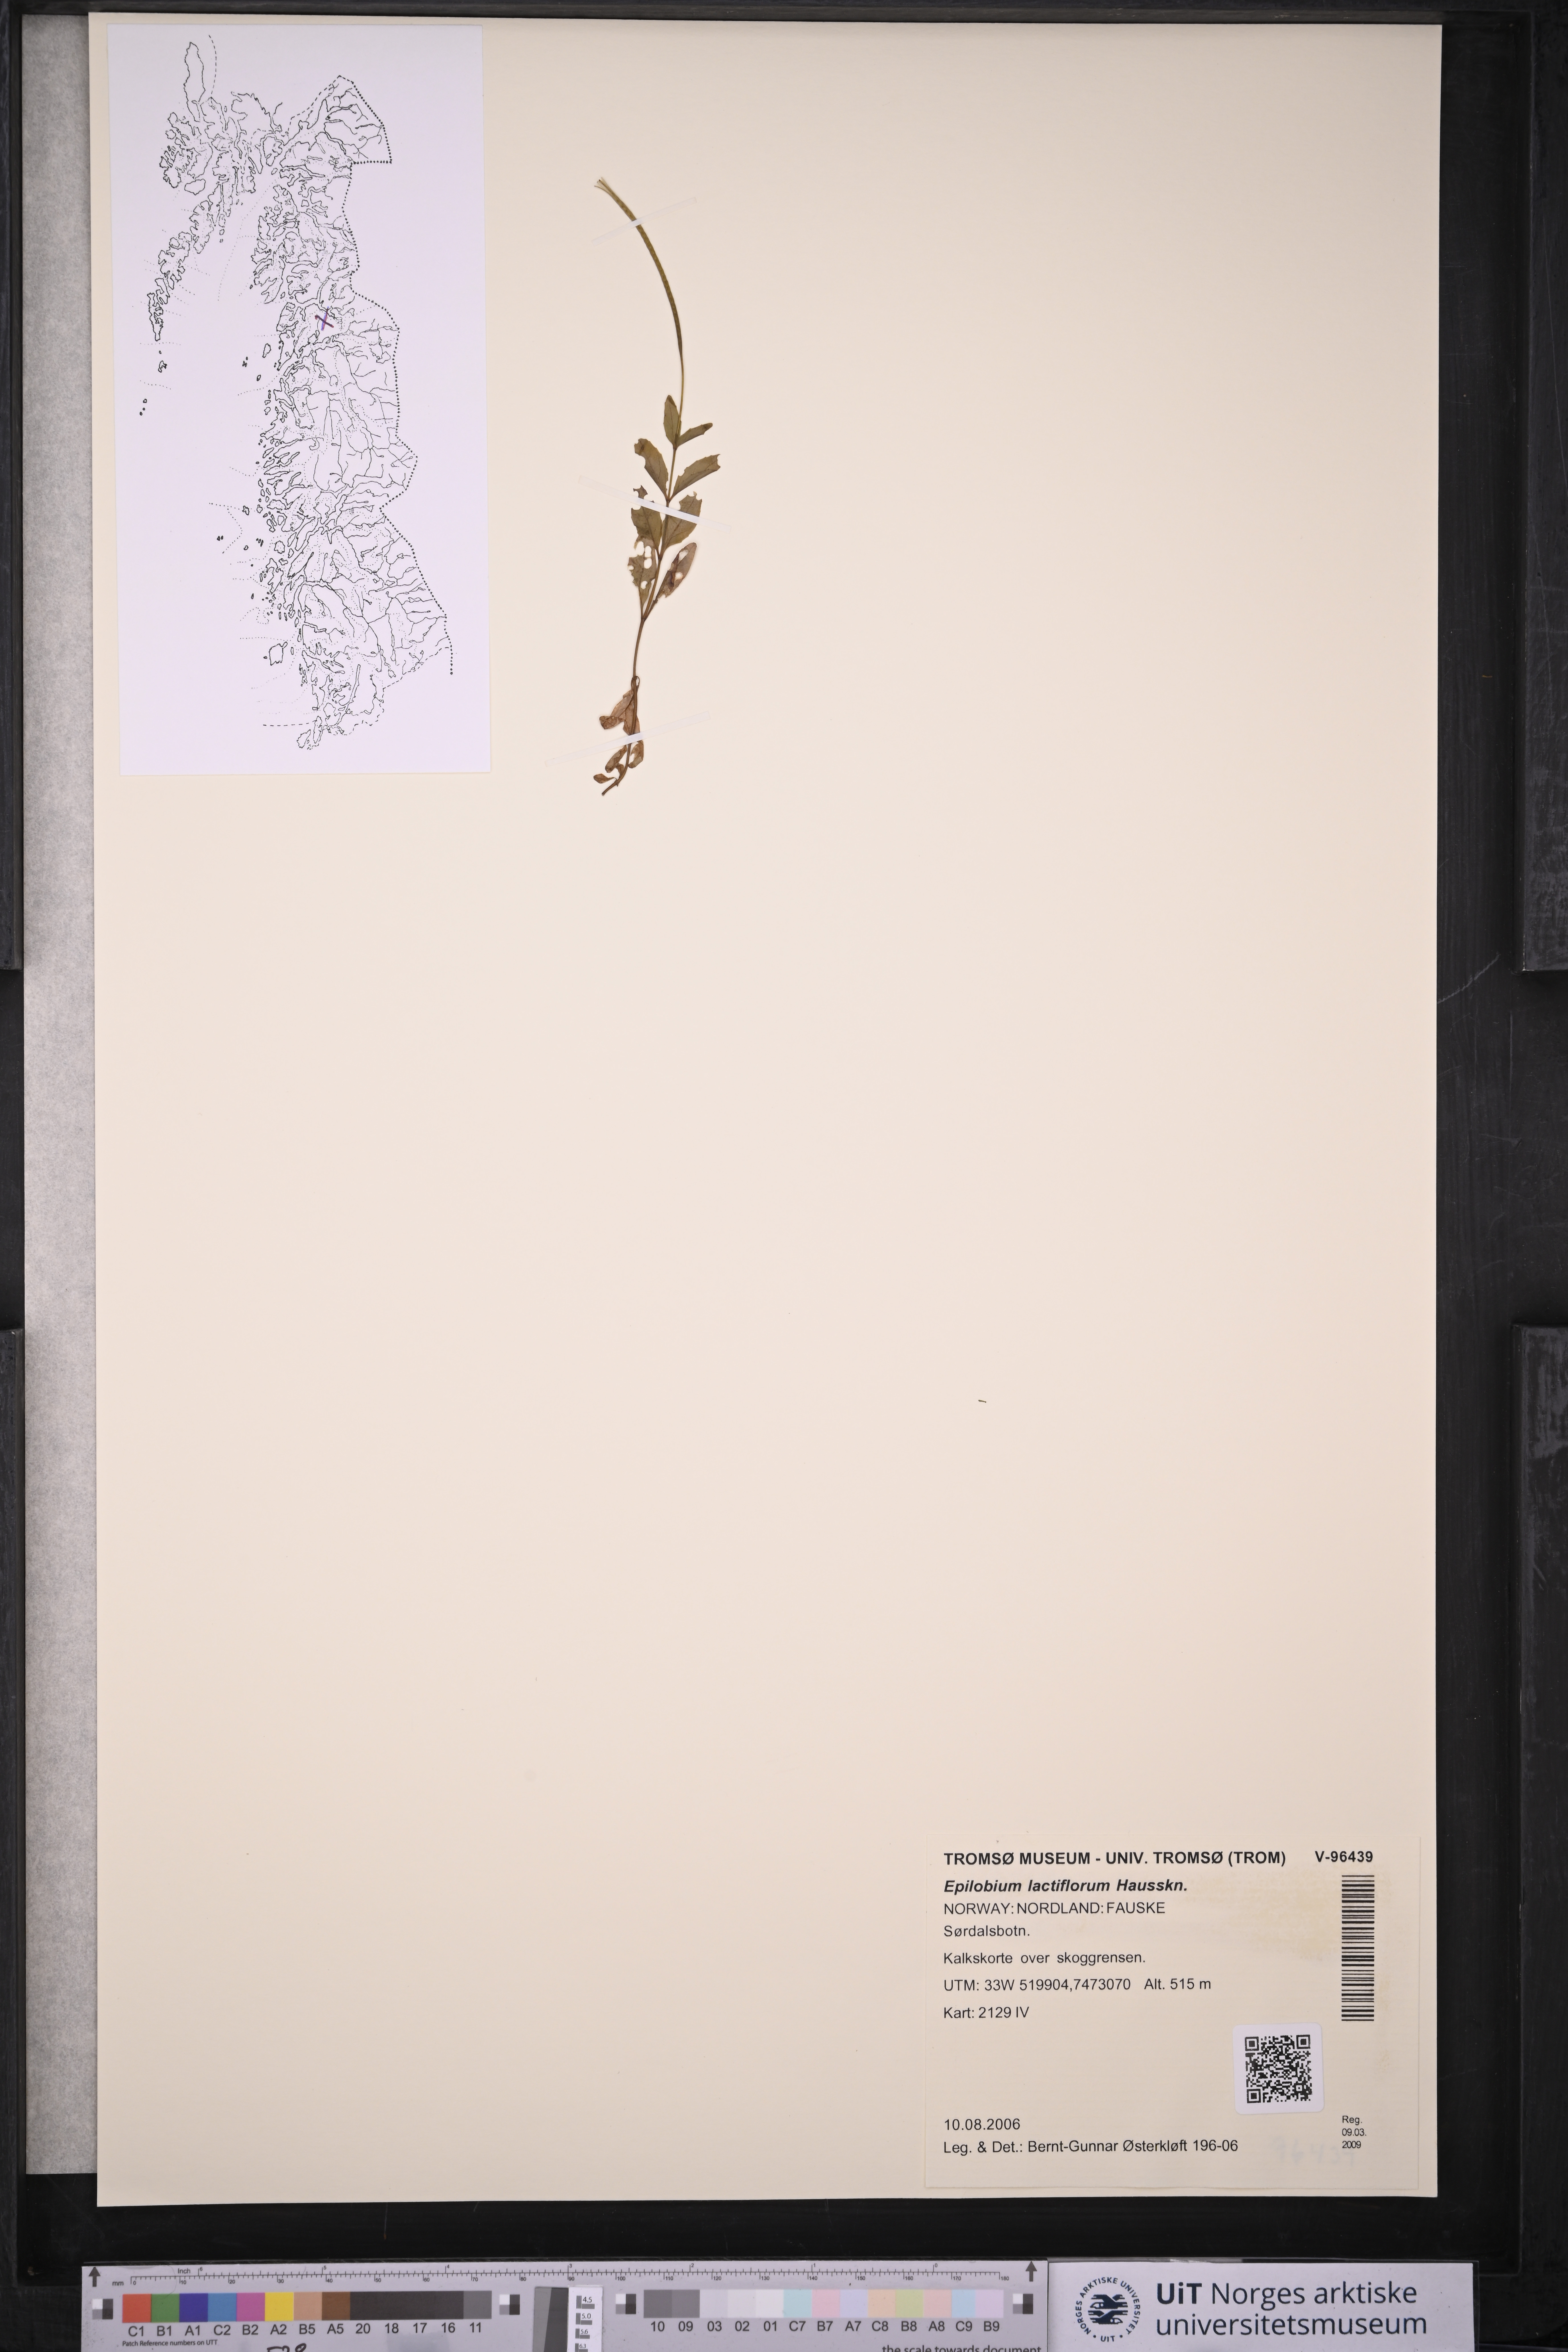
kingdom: Plantae
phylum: Tracheophyta
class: Magnoliopsida
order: Myrtales
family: Onagraceae
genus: Epilobium
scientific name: Epilobium lactiflorum
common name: Milkflower willowherb
